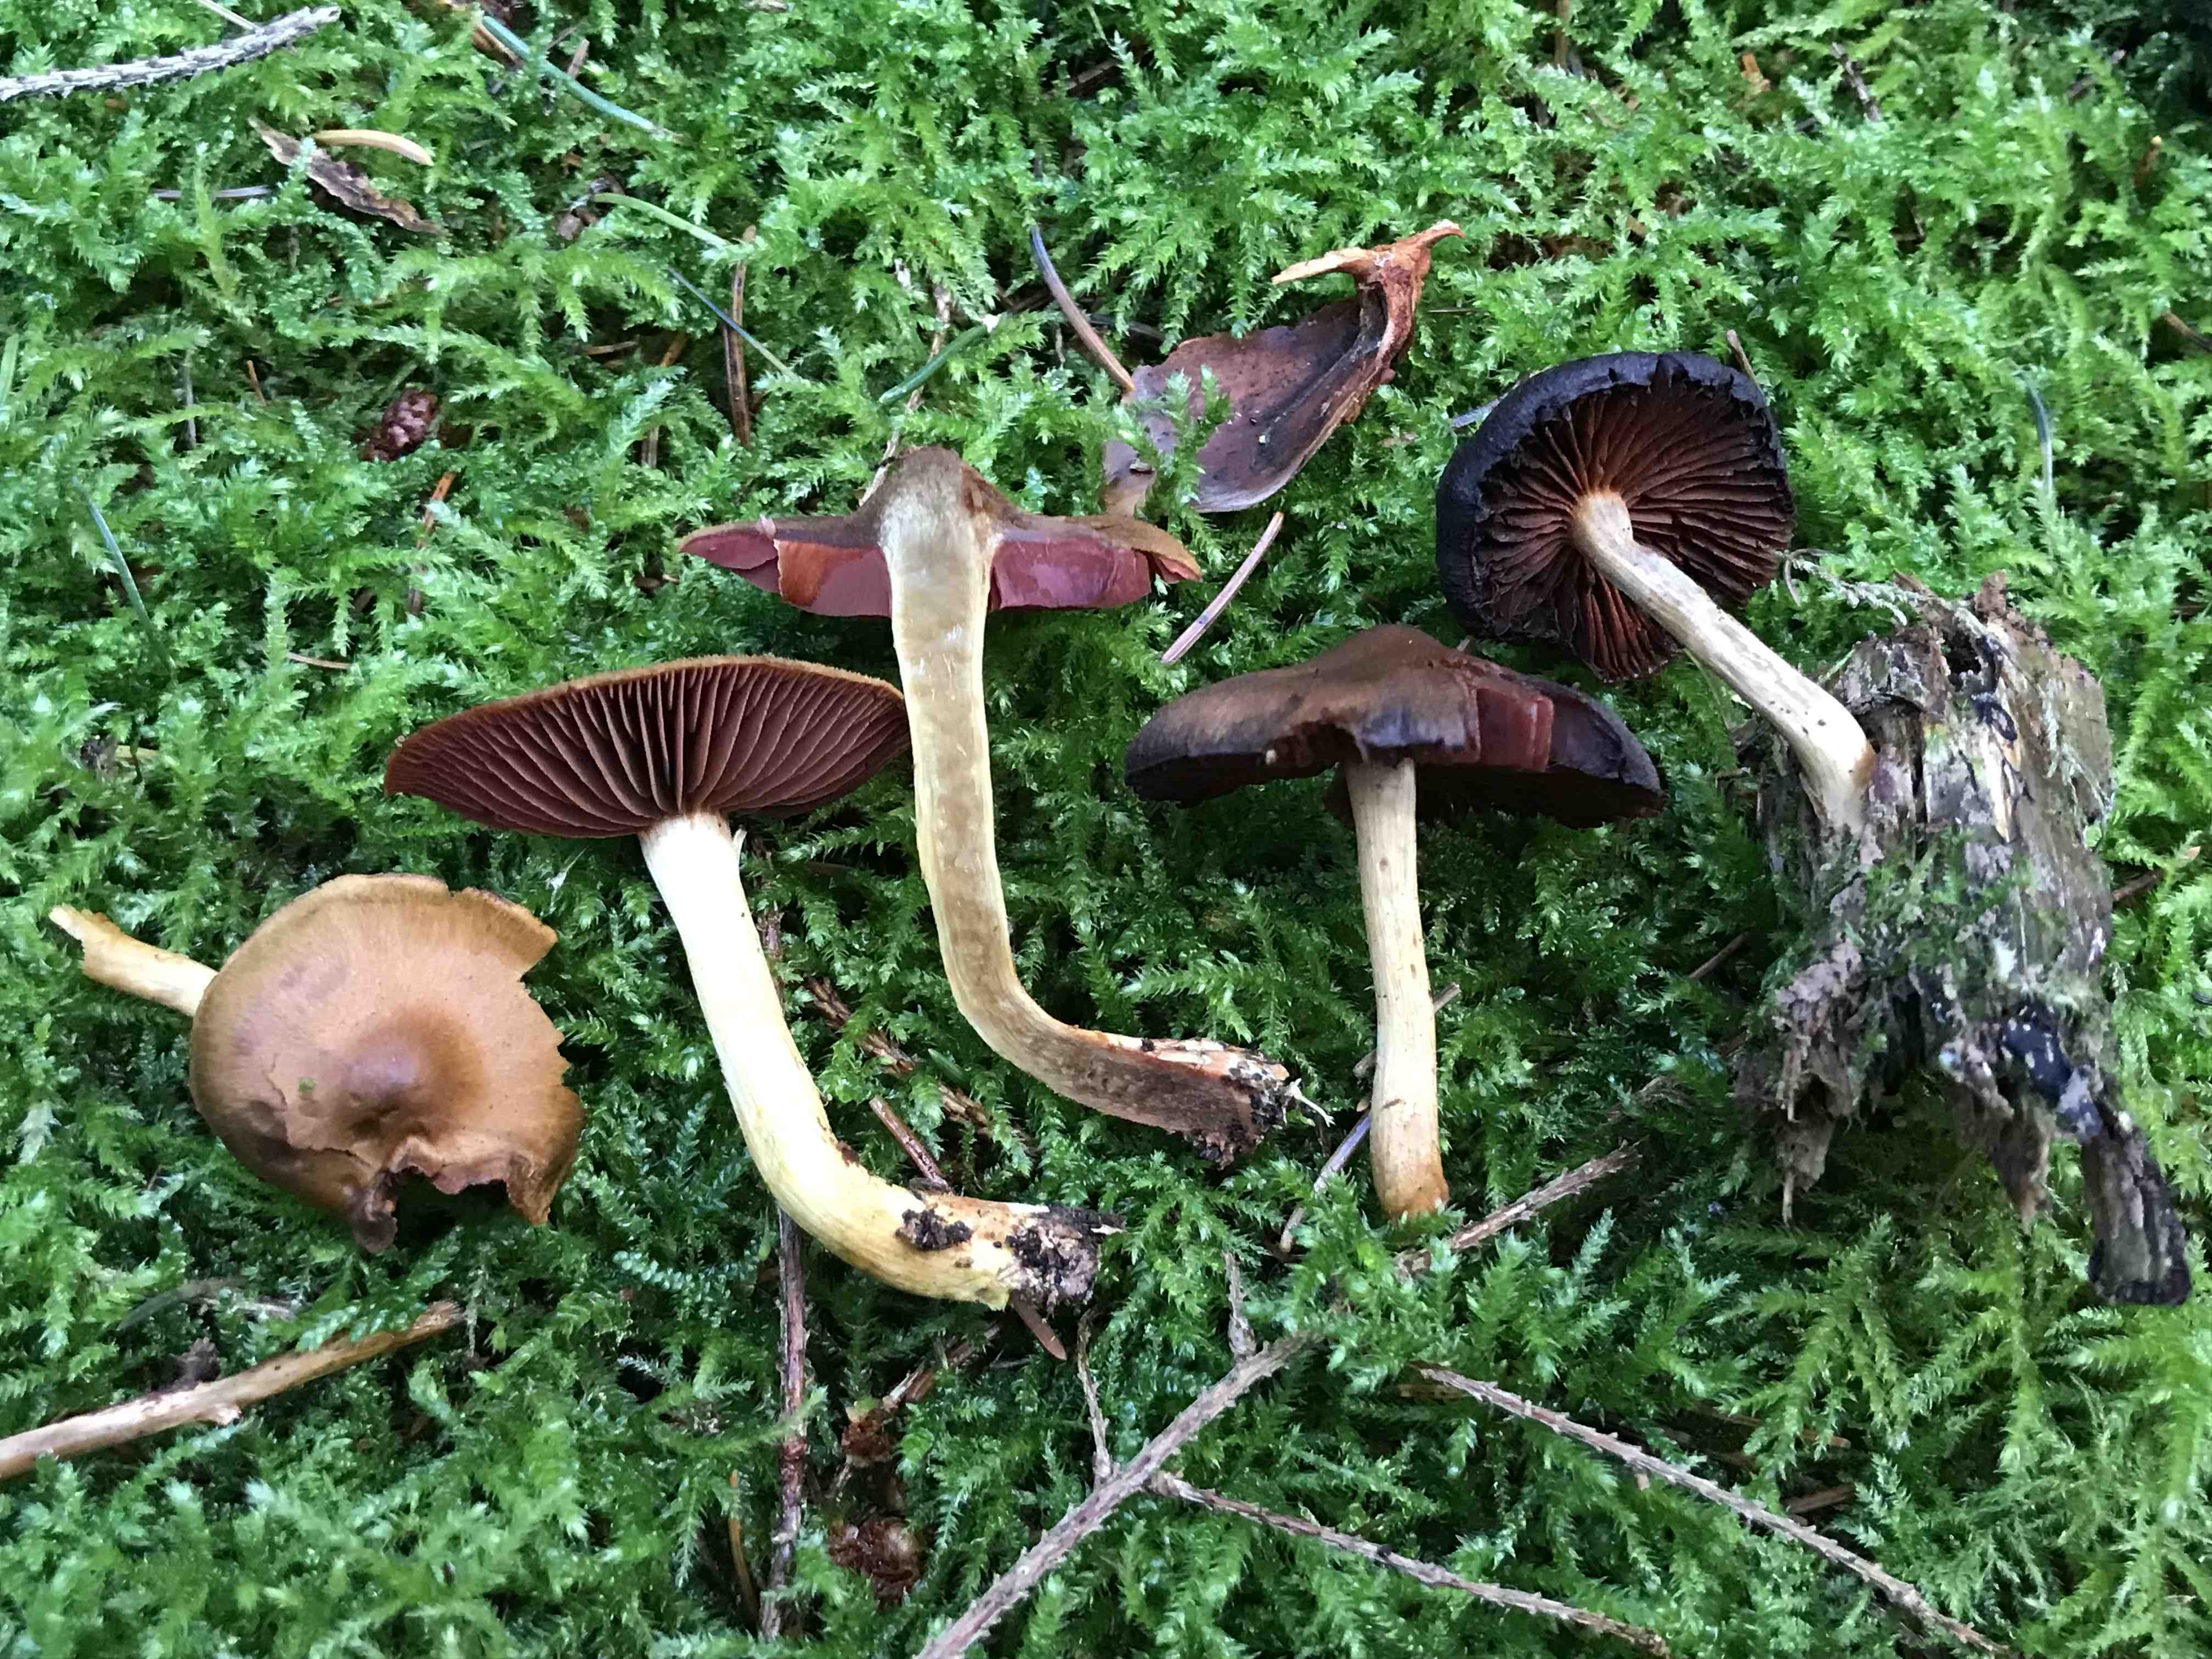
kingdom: Fungi
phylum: Basidiomycota
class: Agaricomycetes
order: Agaricales
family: Cortinariaceae
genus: Cortinarius
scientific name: Cortinarius
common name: cinnoberbladet slørhat
